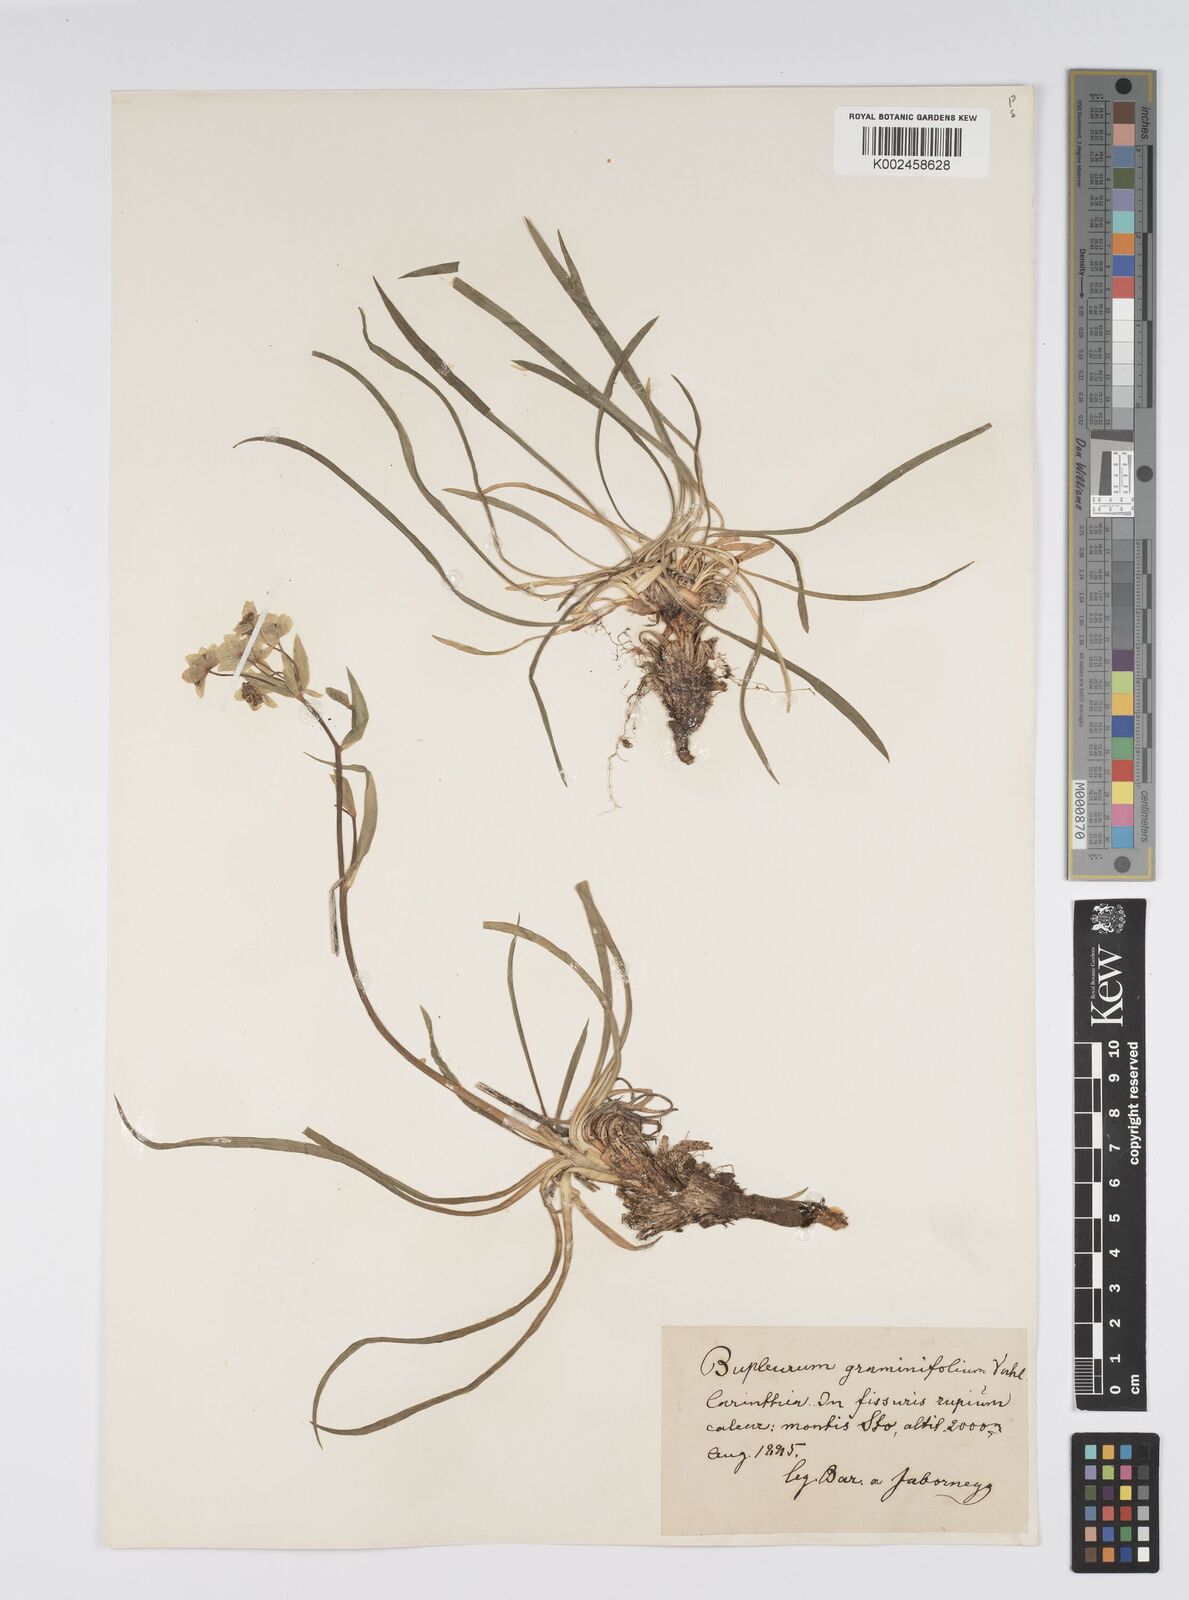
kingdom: Plantae
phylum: Tracheophyta
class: Magnoliopsida
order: Apiales
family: Apiaceae
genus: Bupleurum
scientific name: Bupleurum petraeum
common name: Rock hare's-ear
